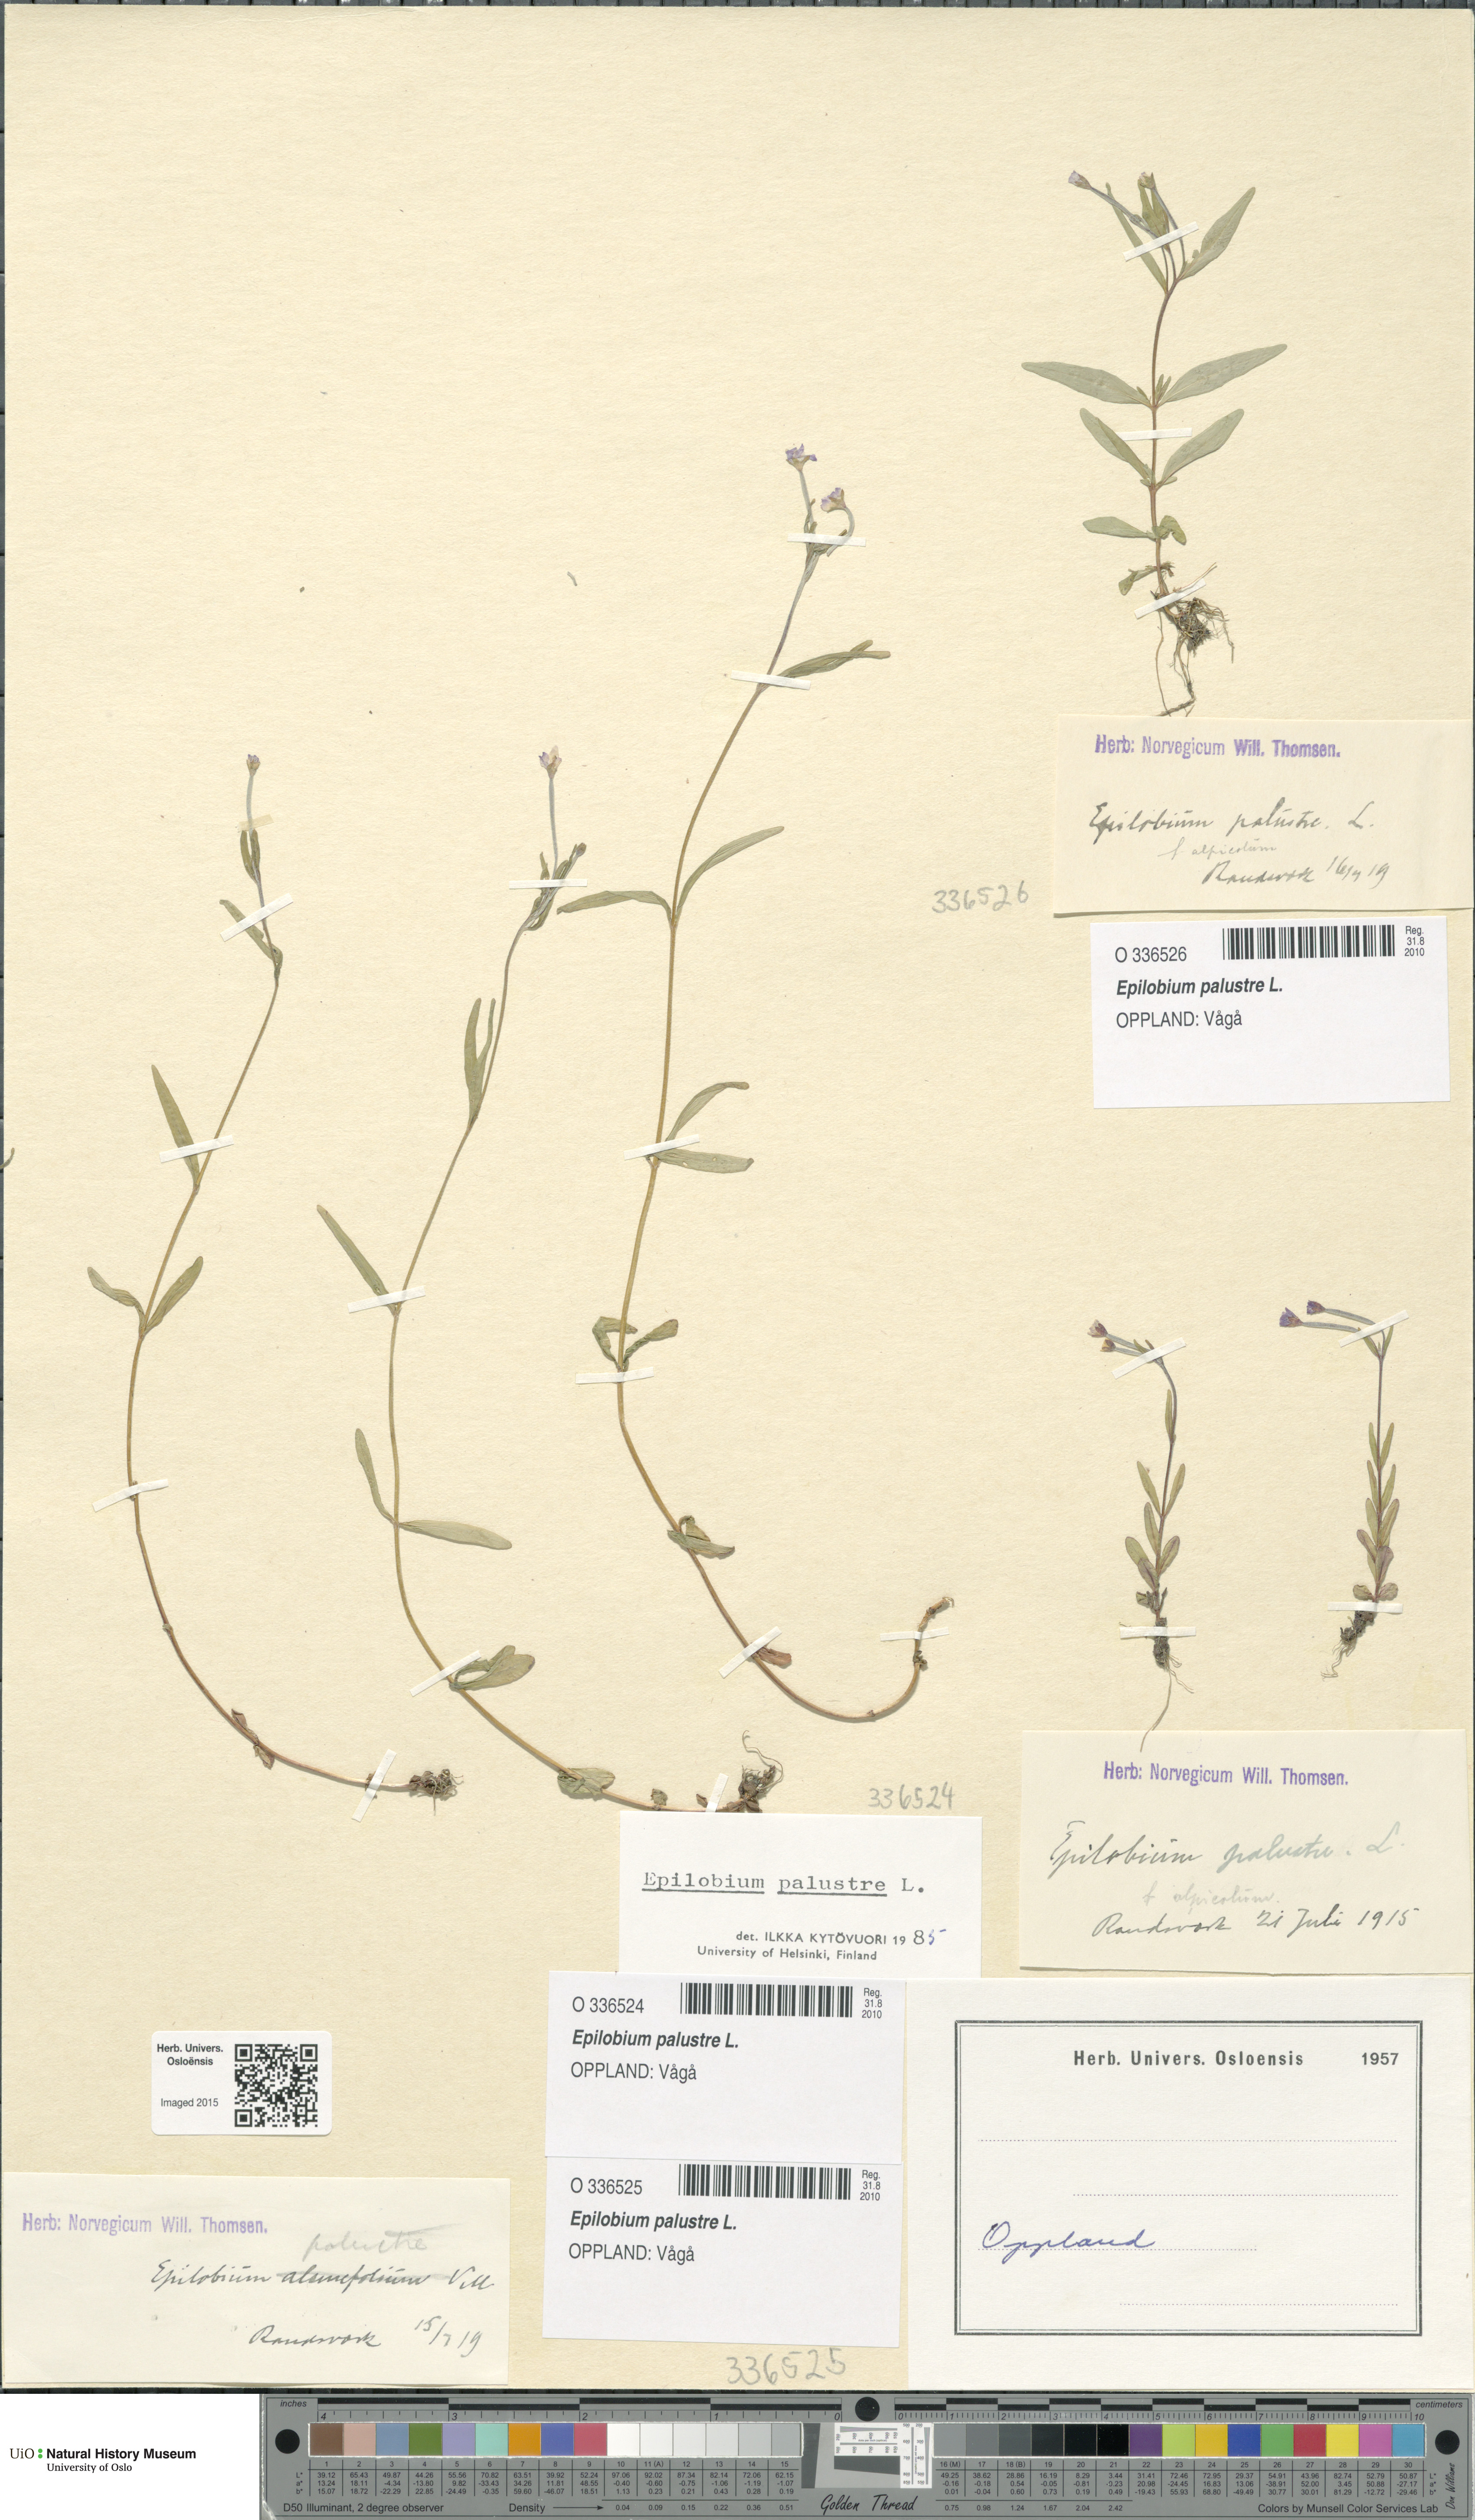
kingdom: Plantae
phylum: Tracheophyta
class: Magnoliopsida
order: Myrtales
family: Onagraceae
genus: Epilobium
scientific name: Epilobium palustre
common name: Marsh willowherb
